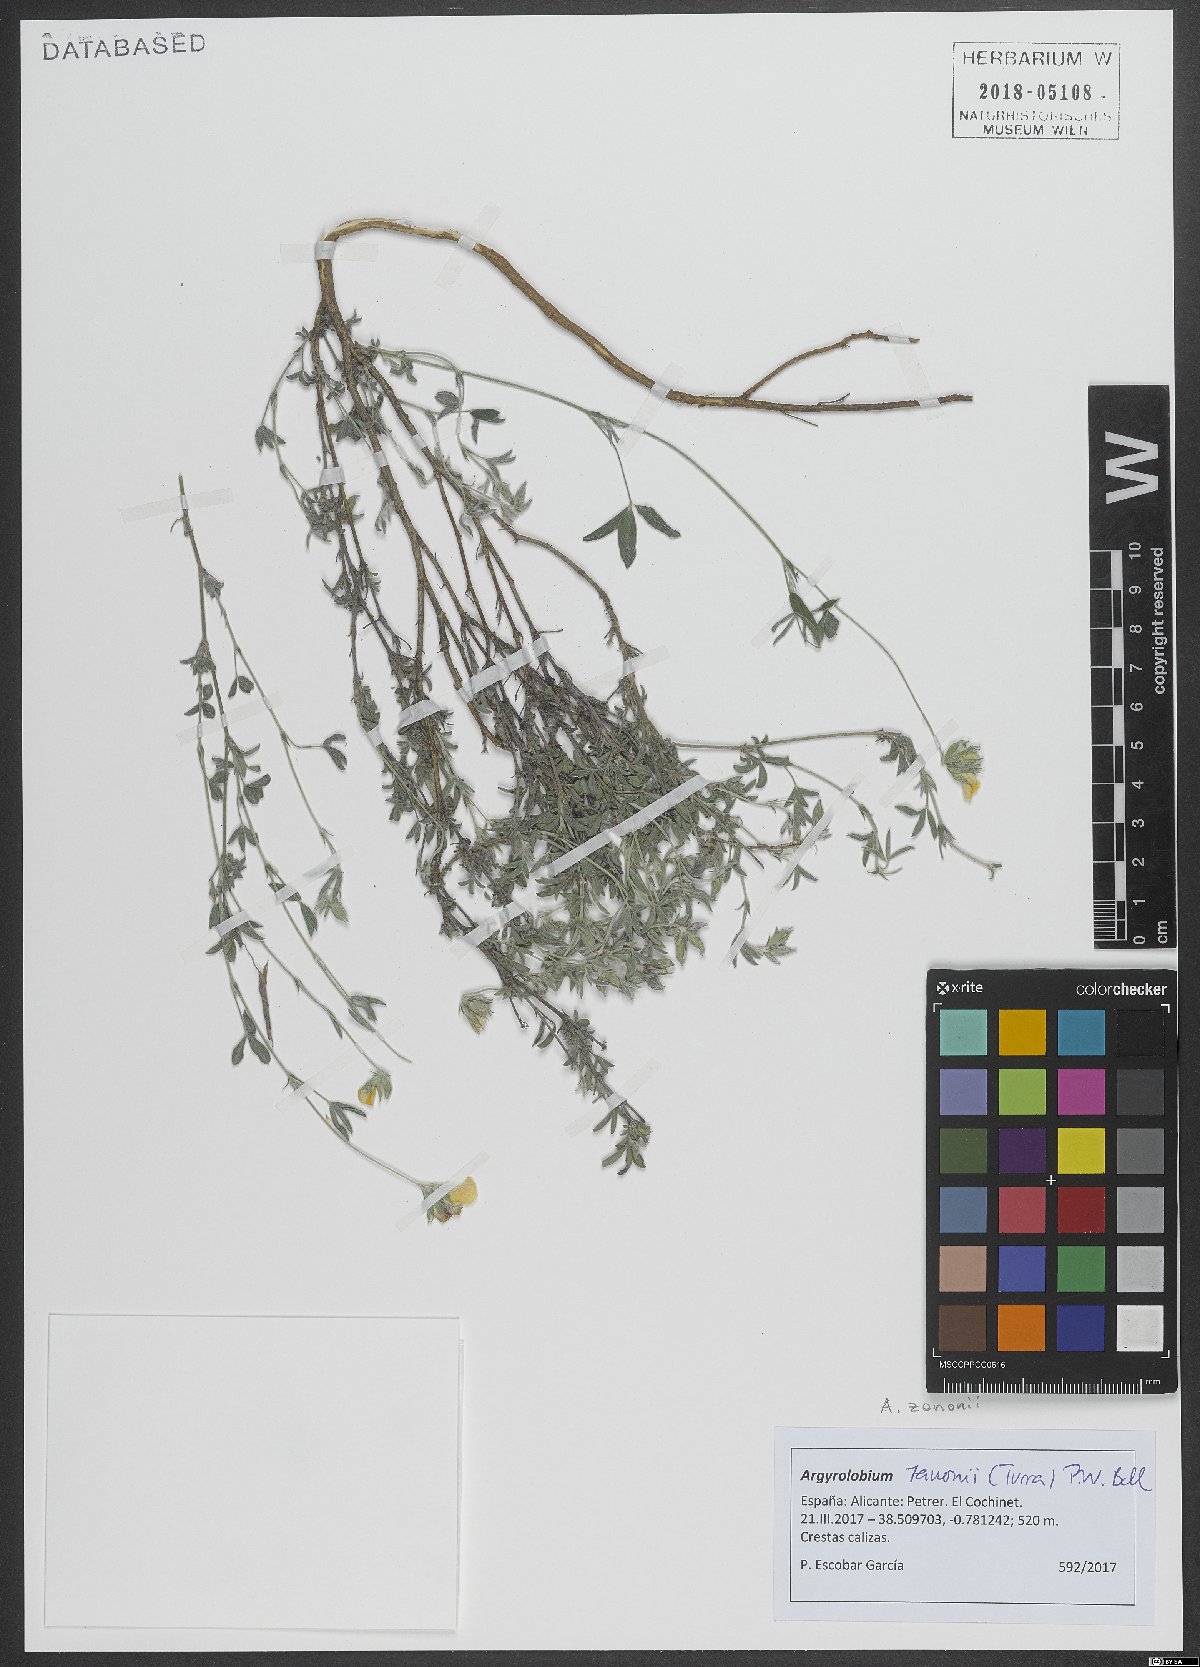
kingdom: Plantae
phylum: Tracheophyta
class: Magnoliopsida
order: Fabales
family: Fabaceae
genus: Argyrolobium
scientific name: Argyrolobium zanonii
